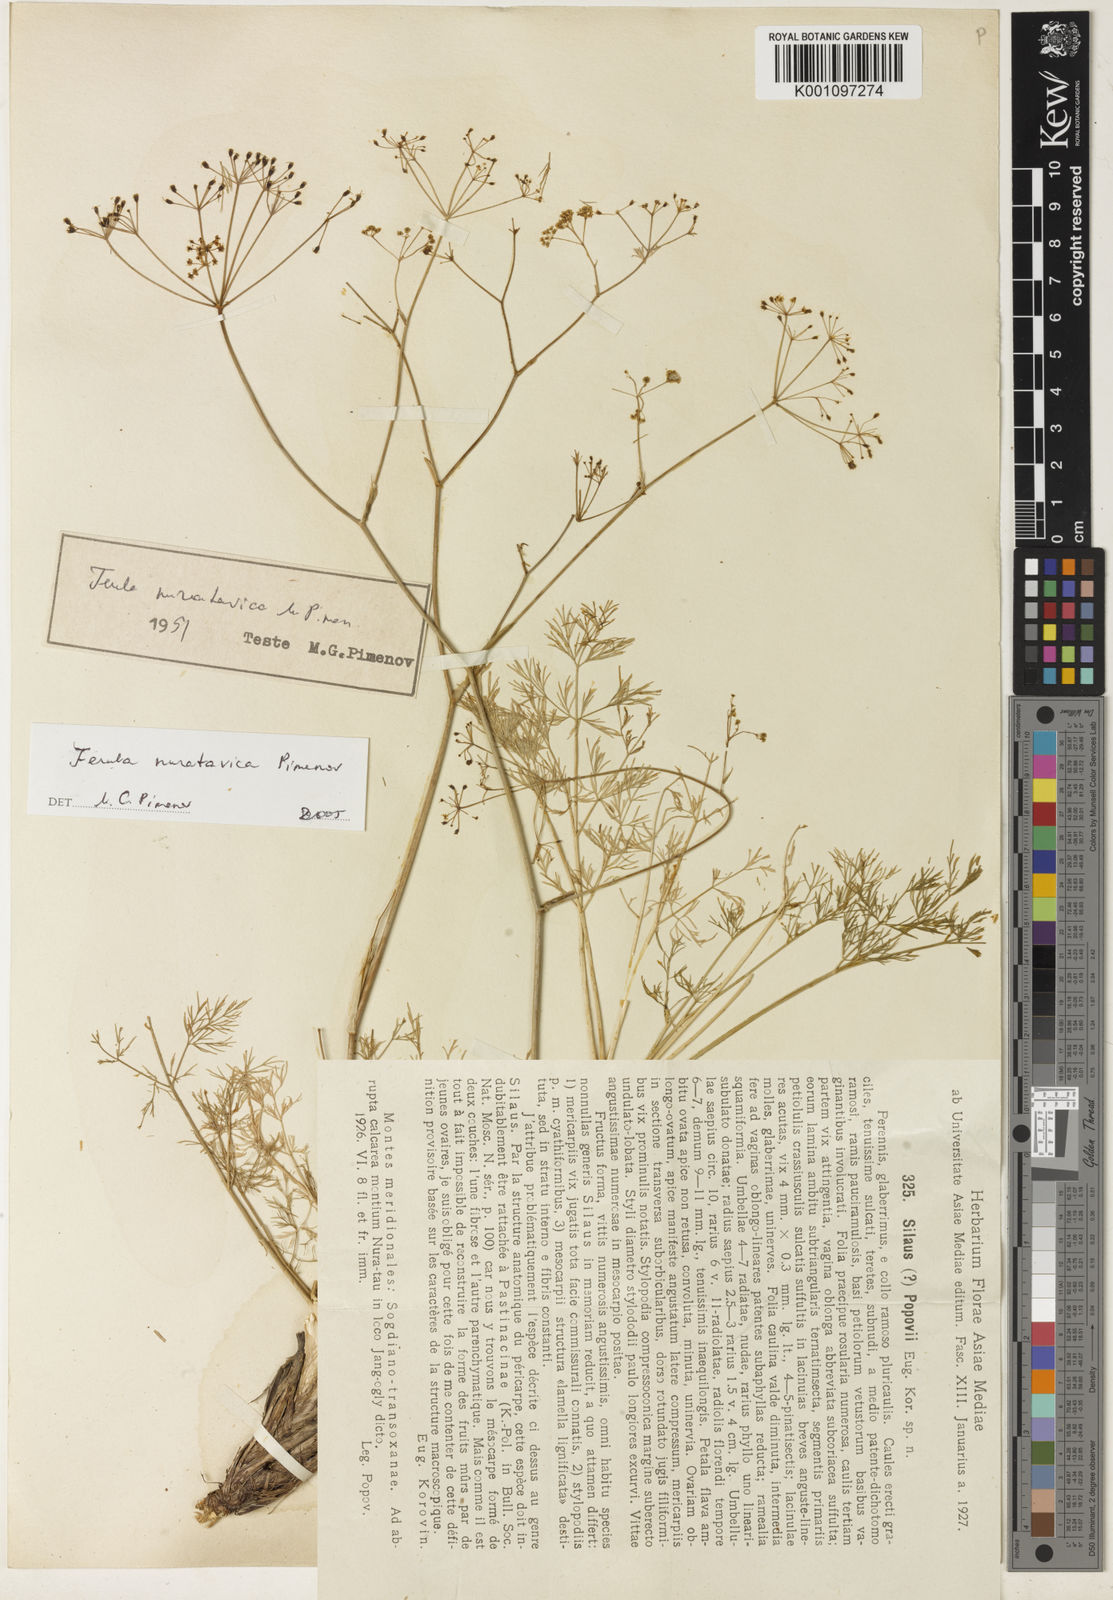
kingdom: Plantae
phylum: Tracheophyta
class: Magnoliopsida
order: Apiales
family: Apiaceae
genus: Ferula
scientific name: Ferula nuratavica
